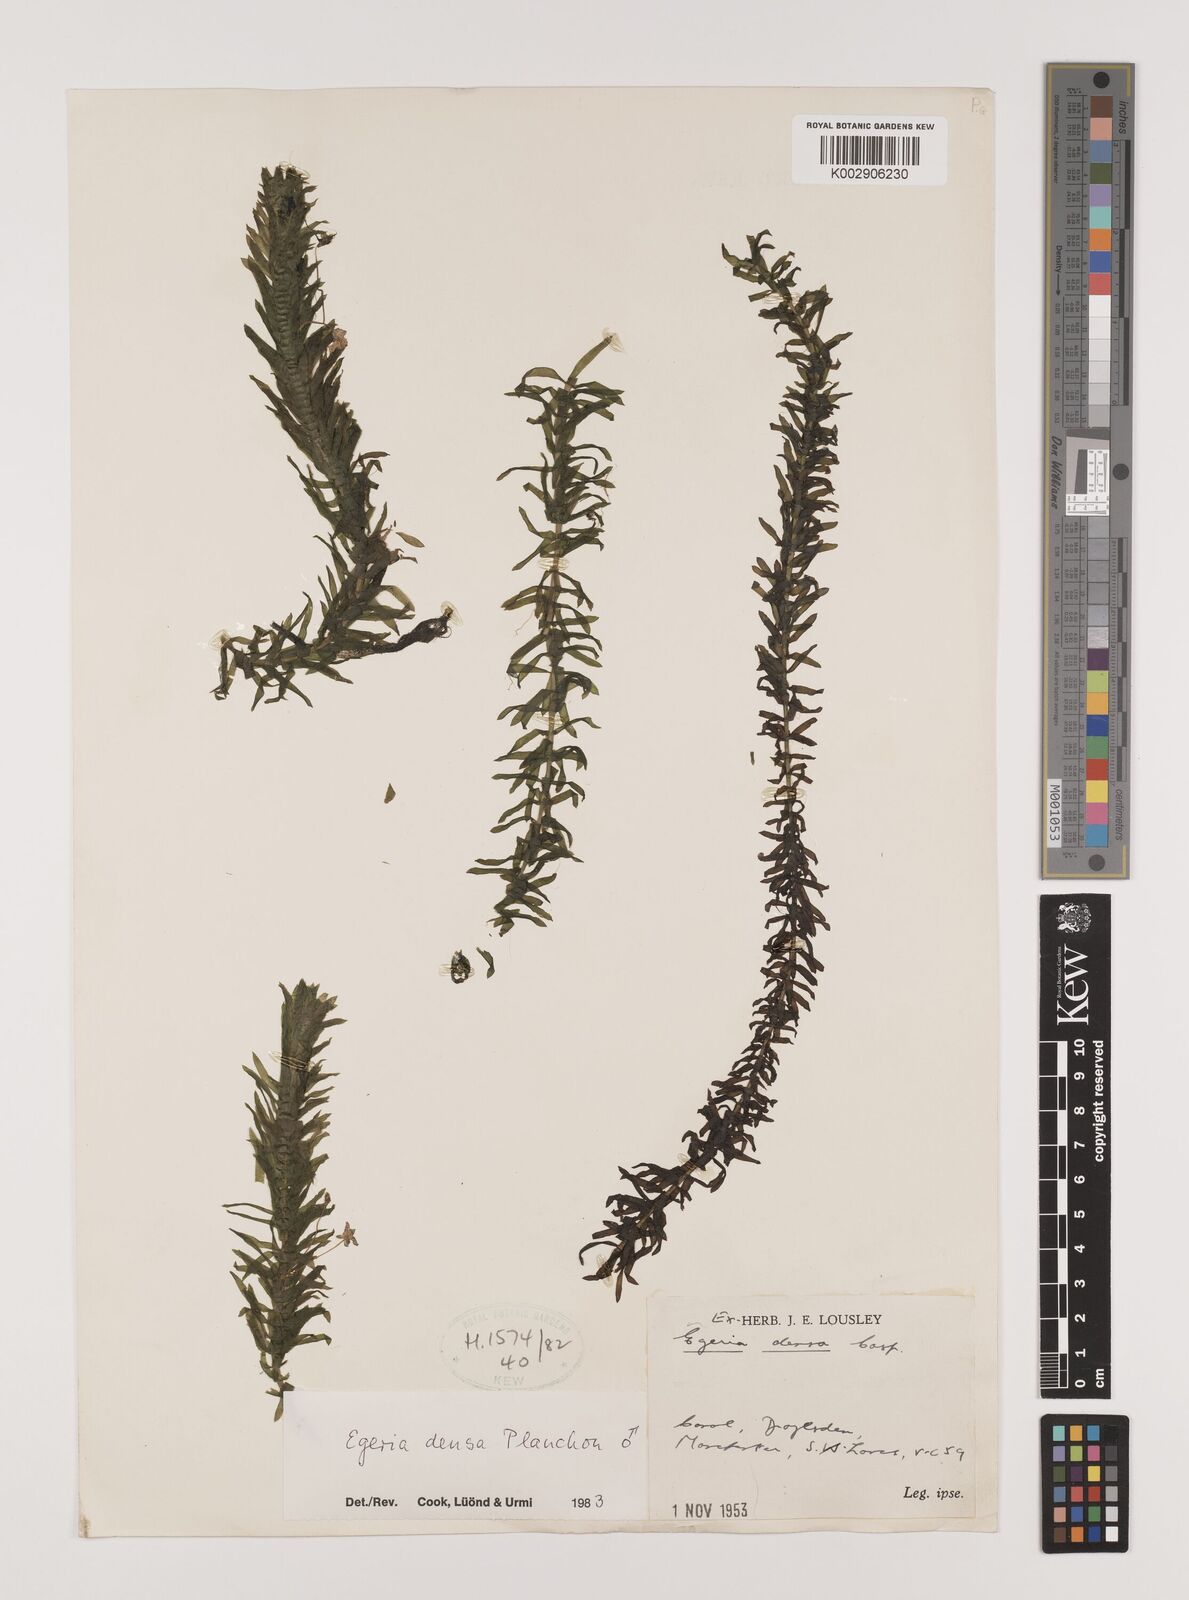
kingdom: Plantae
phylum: Tracheophyta
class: Liliopsida
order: Alismatales
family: Hydrocharitaceae
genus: Elodea
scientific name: Elodea densa
